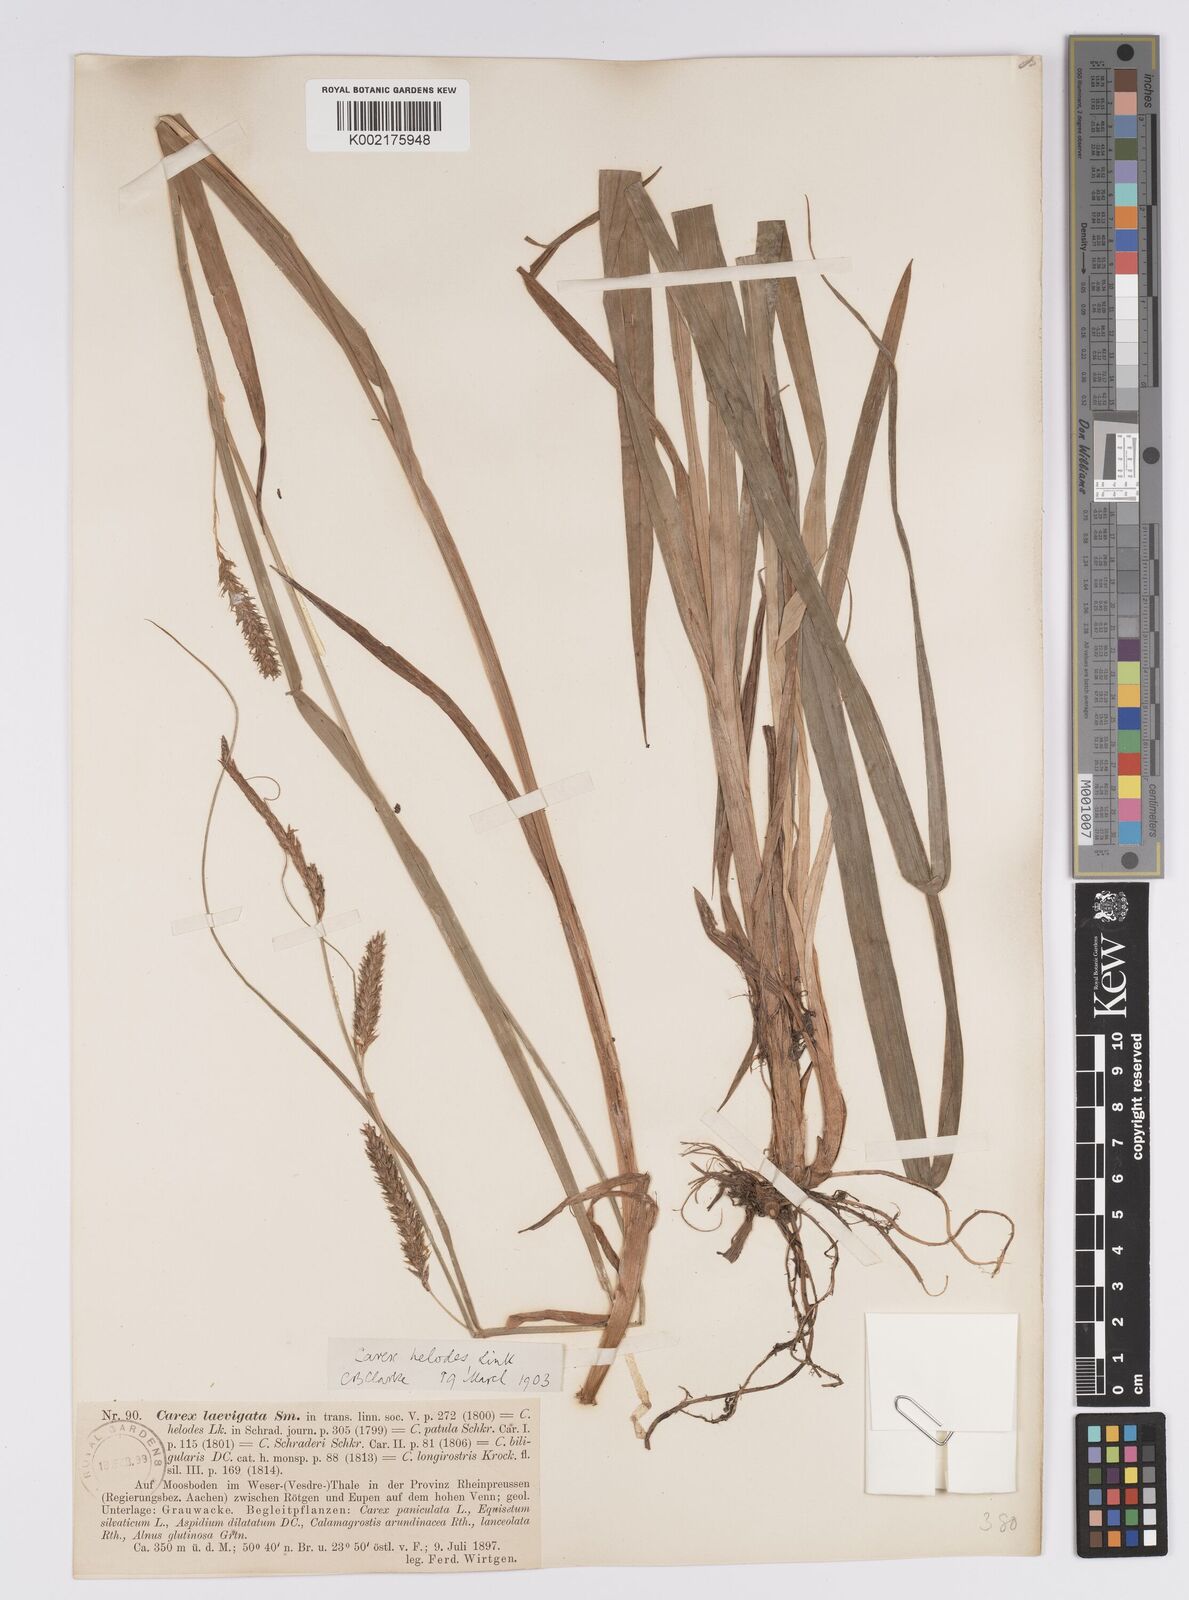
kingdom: Plantae
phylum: Tracheophyta
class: Liliopsida
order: Poales
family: Cyperaceae
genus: Carex
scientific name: Carex laevigata
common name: Smooth-stalked sedge
